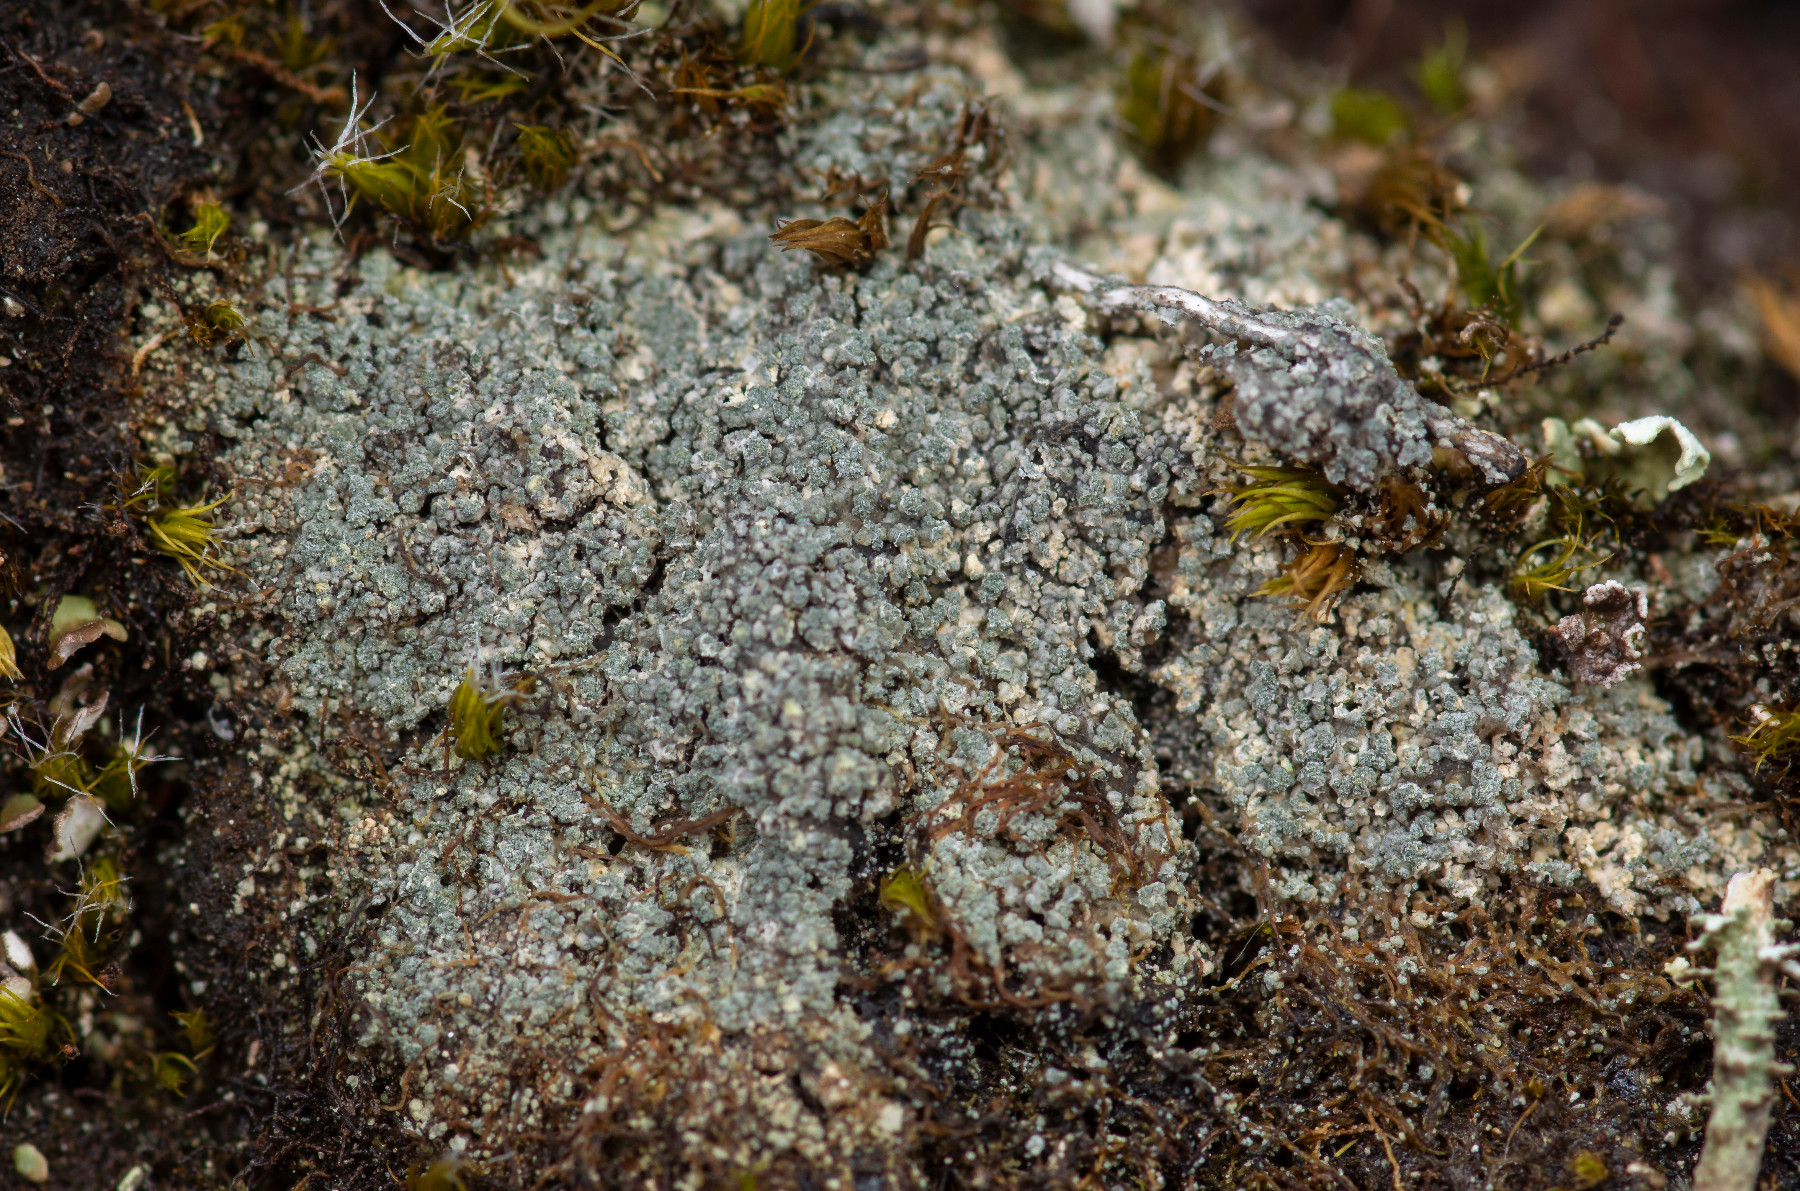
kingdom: Fungi
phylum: Ascomycota
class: Lecanoromycetes
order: Lecanorales
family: Byssolomataceae
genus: Micarea
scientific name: Micarea leprosula
